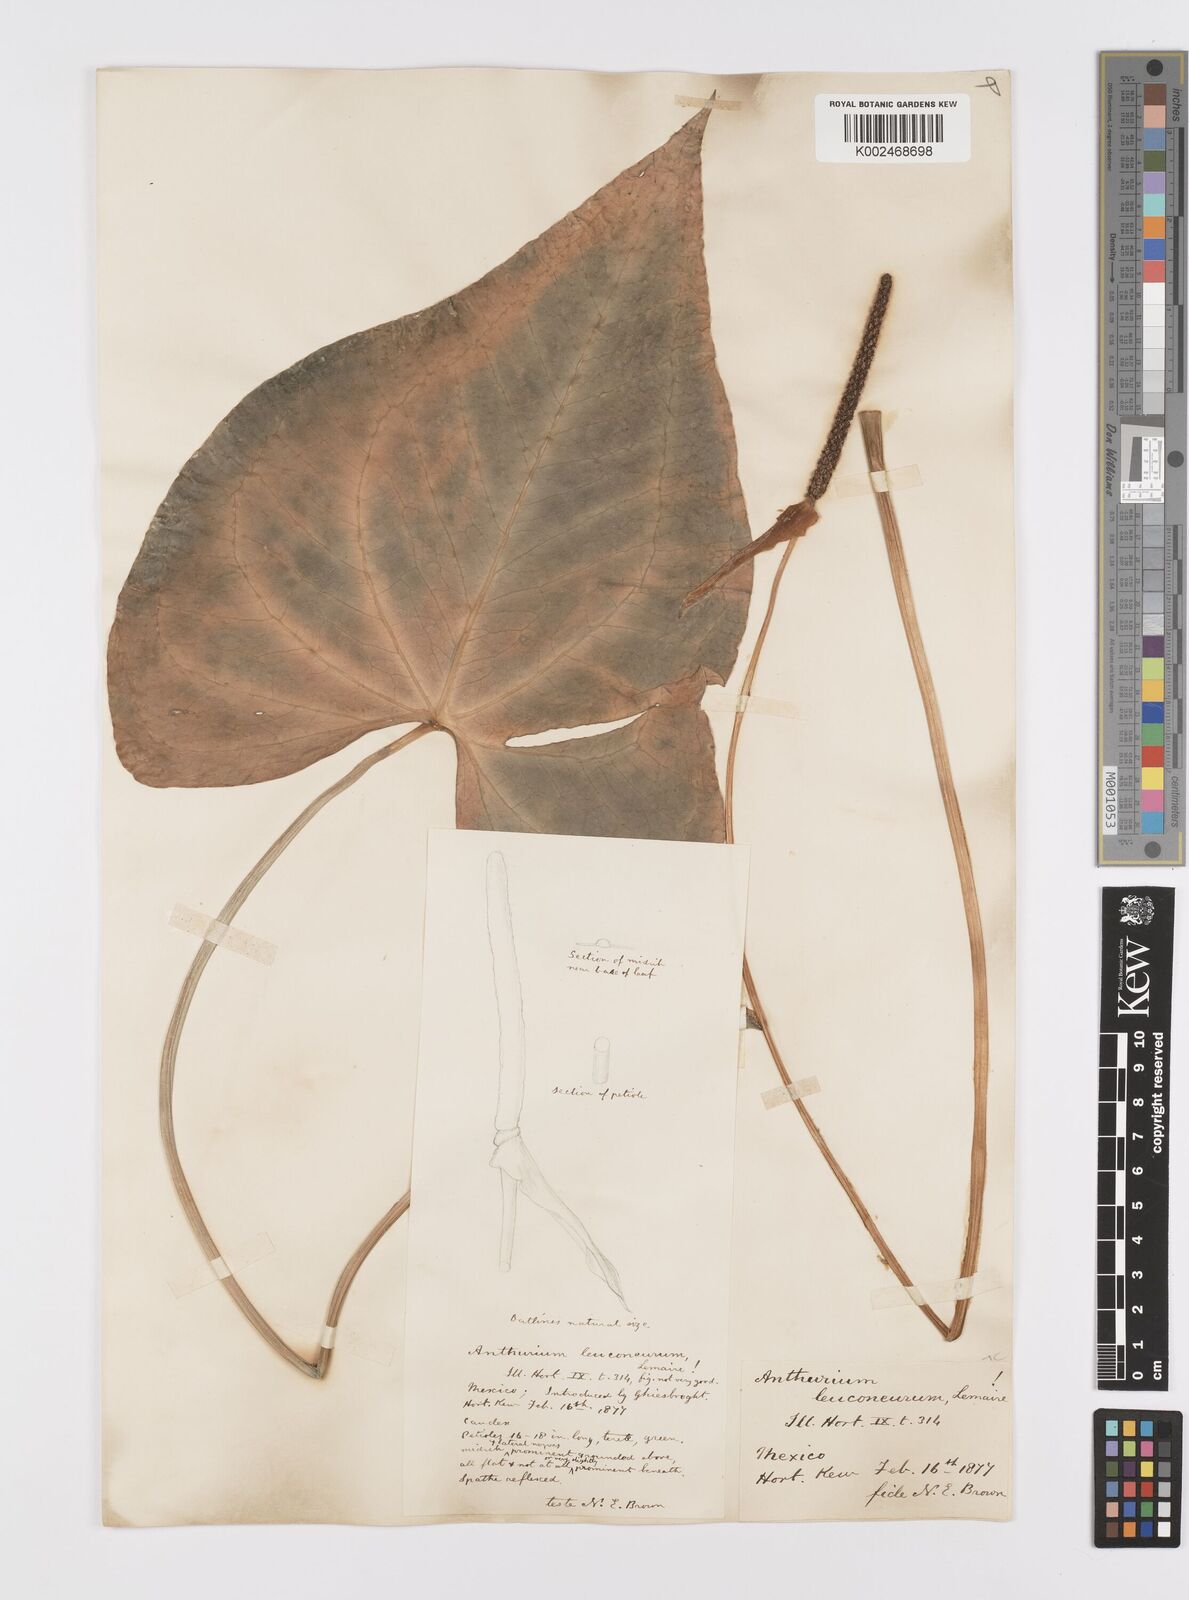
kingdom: Plantae
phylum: Tracheophyta
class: Liliopsida
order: Alismatales
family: Araceae
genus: Anthurium
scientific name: Anthurium leuconeurum
